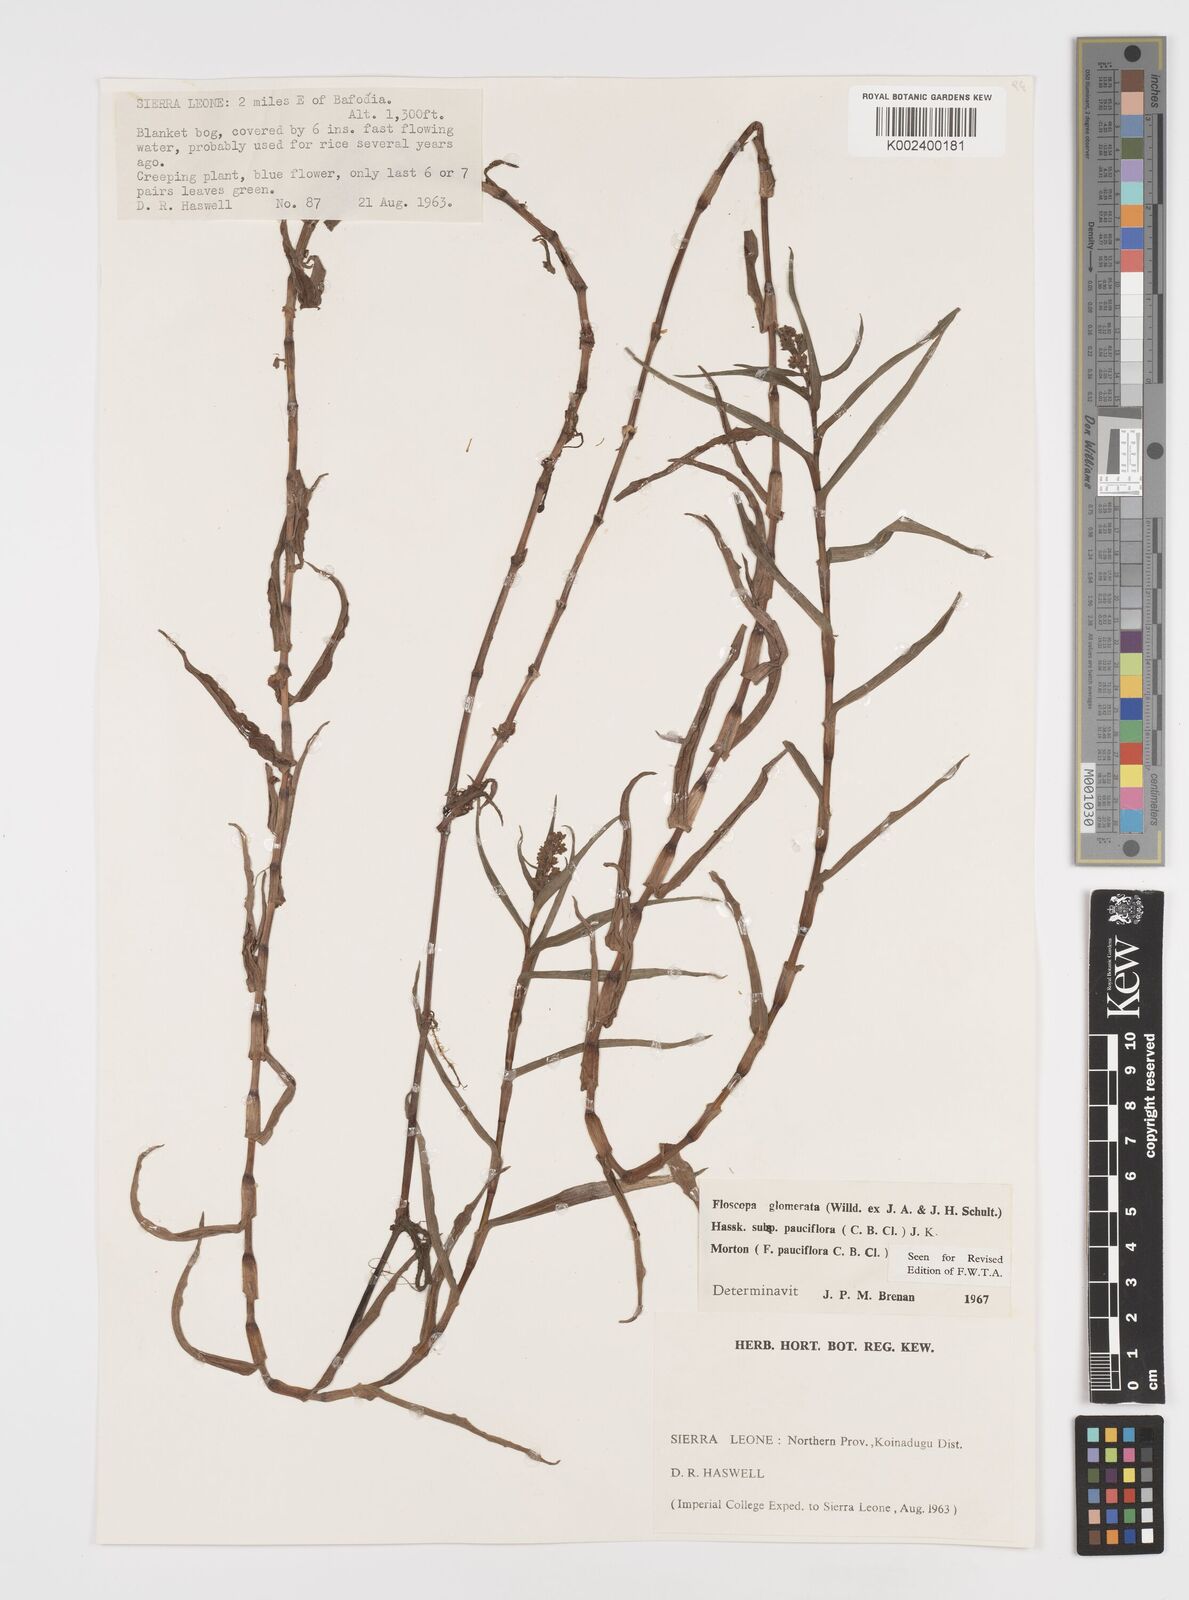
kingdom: Plantae
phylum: Tracheophyta
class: Liliopsida
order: Commelinales
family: Commelinaceae
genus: Floscopa
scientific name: Floscopa glomerata
